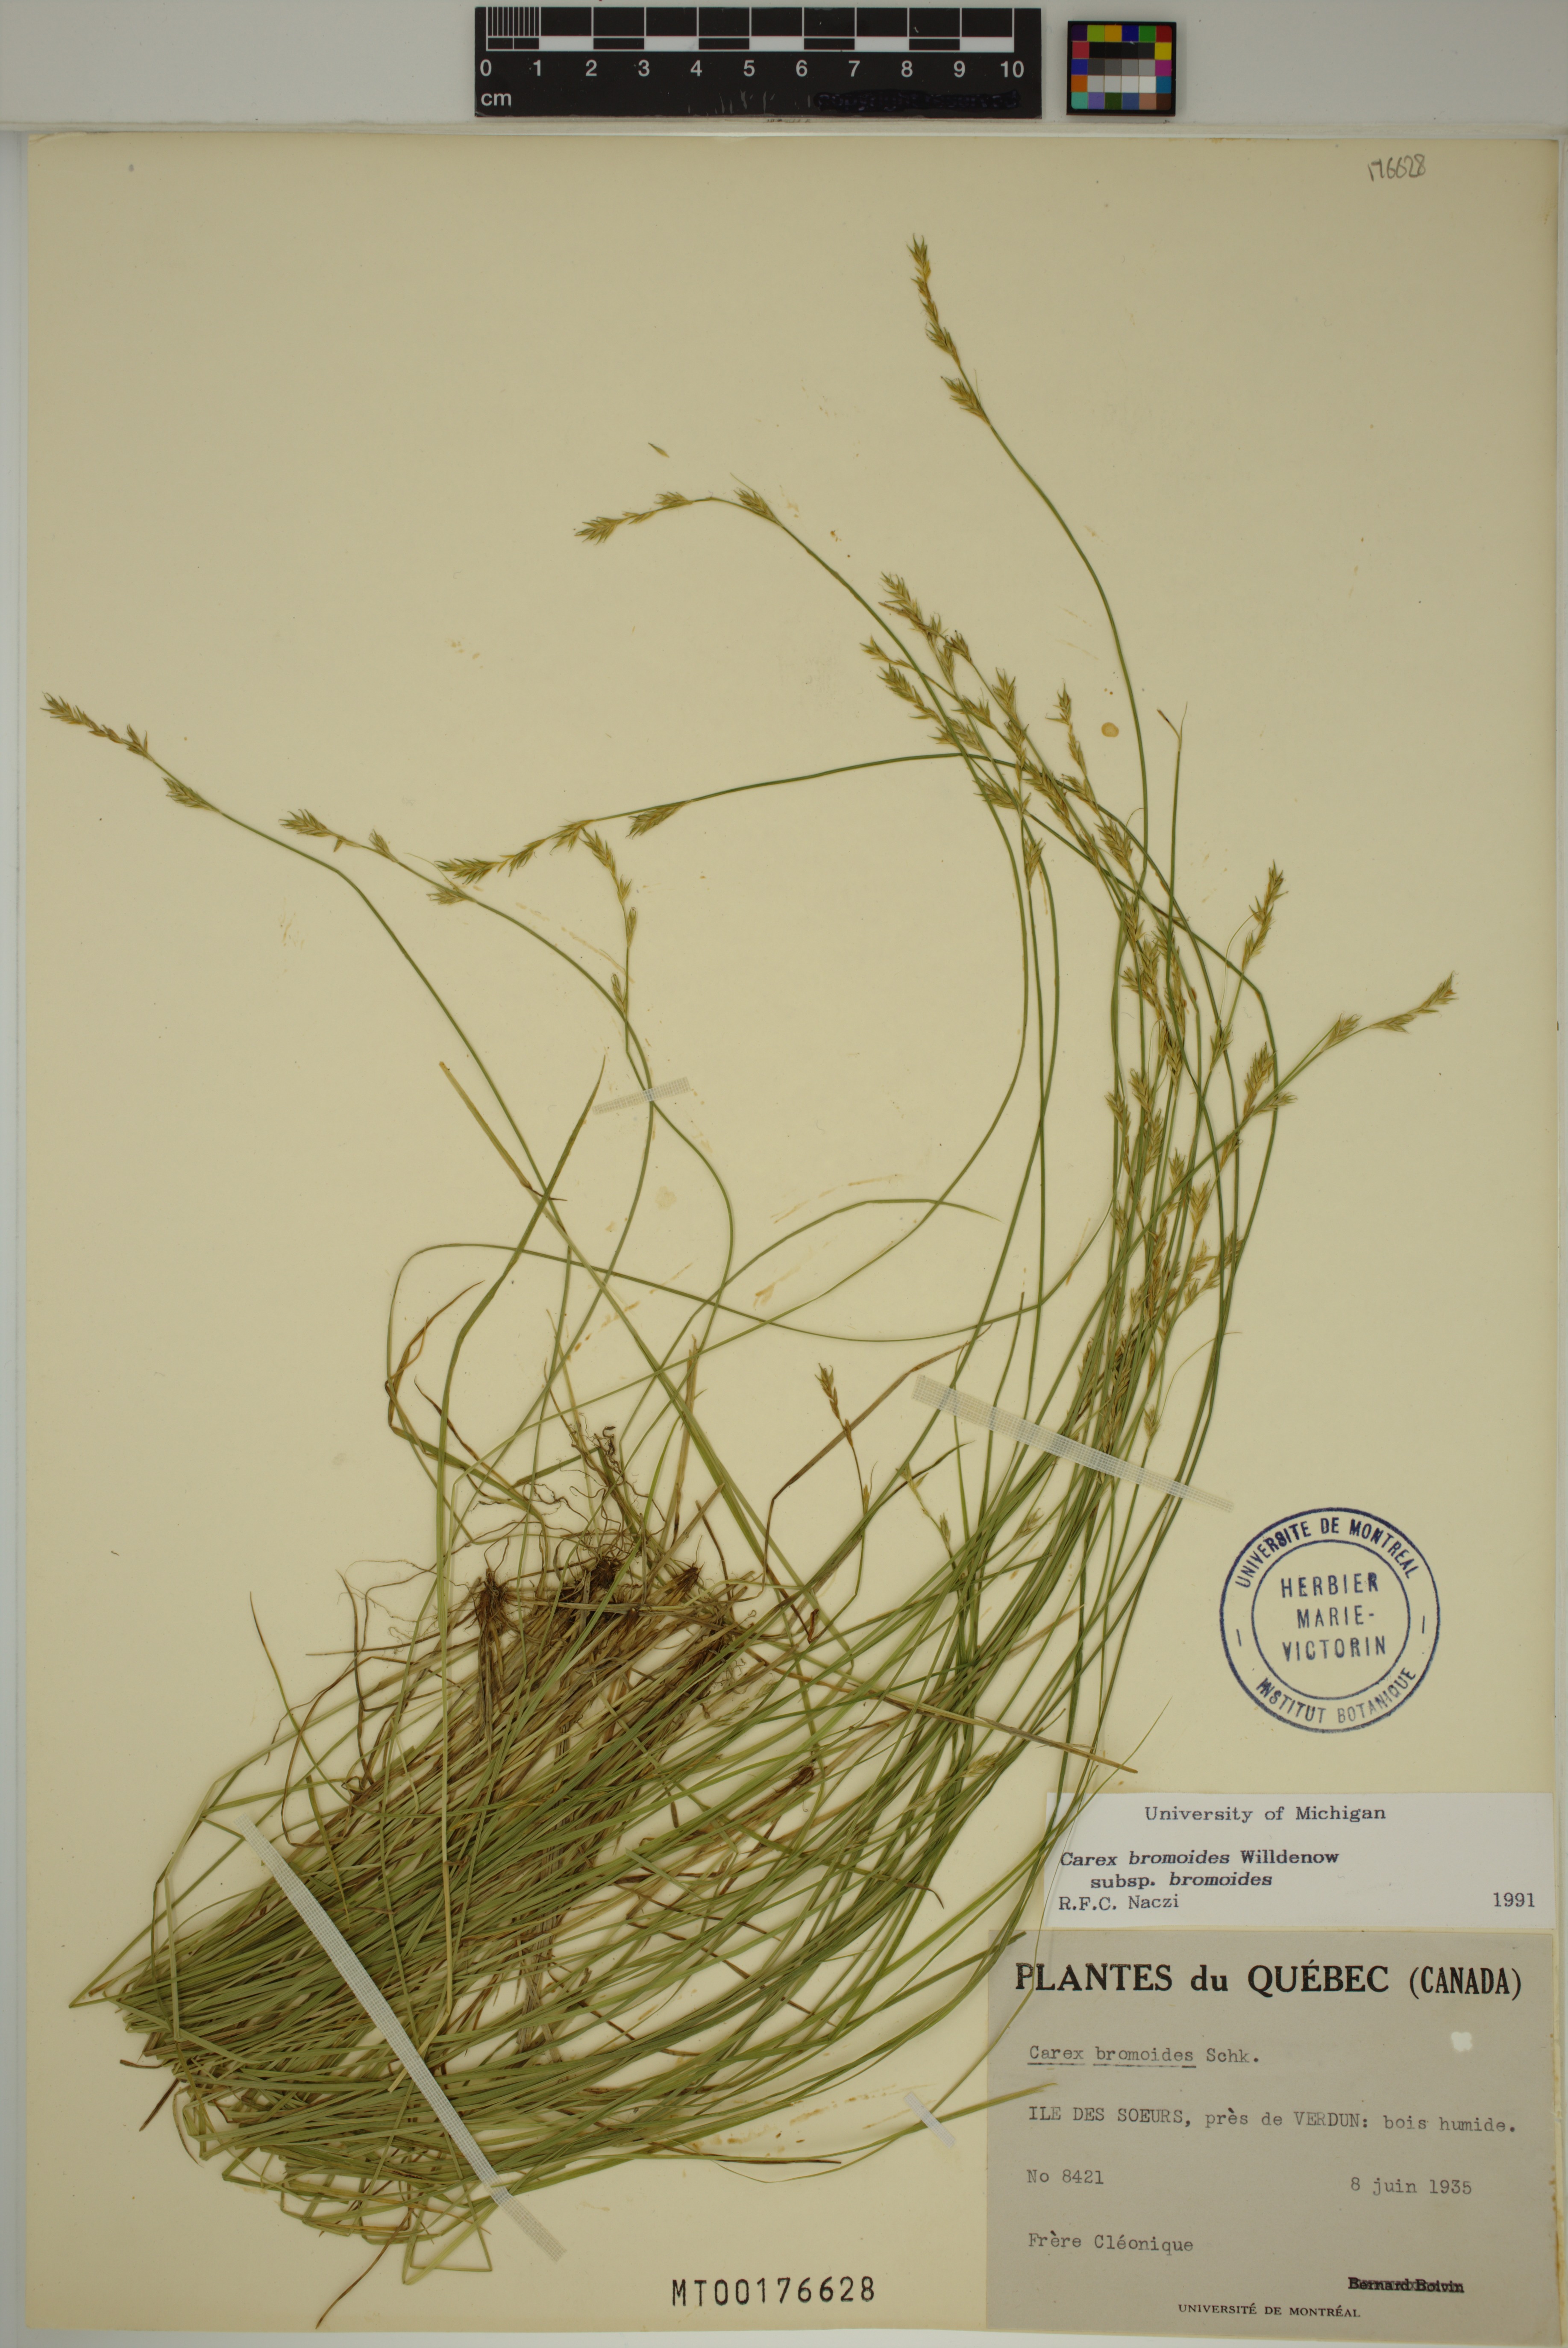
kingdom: Plantae
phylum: Tracheophyta
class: Liliopsida
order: Poales
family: Cyperaceae
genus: Carex
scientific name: Carex bromoides
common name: Brome hummock sedge
